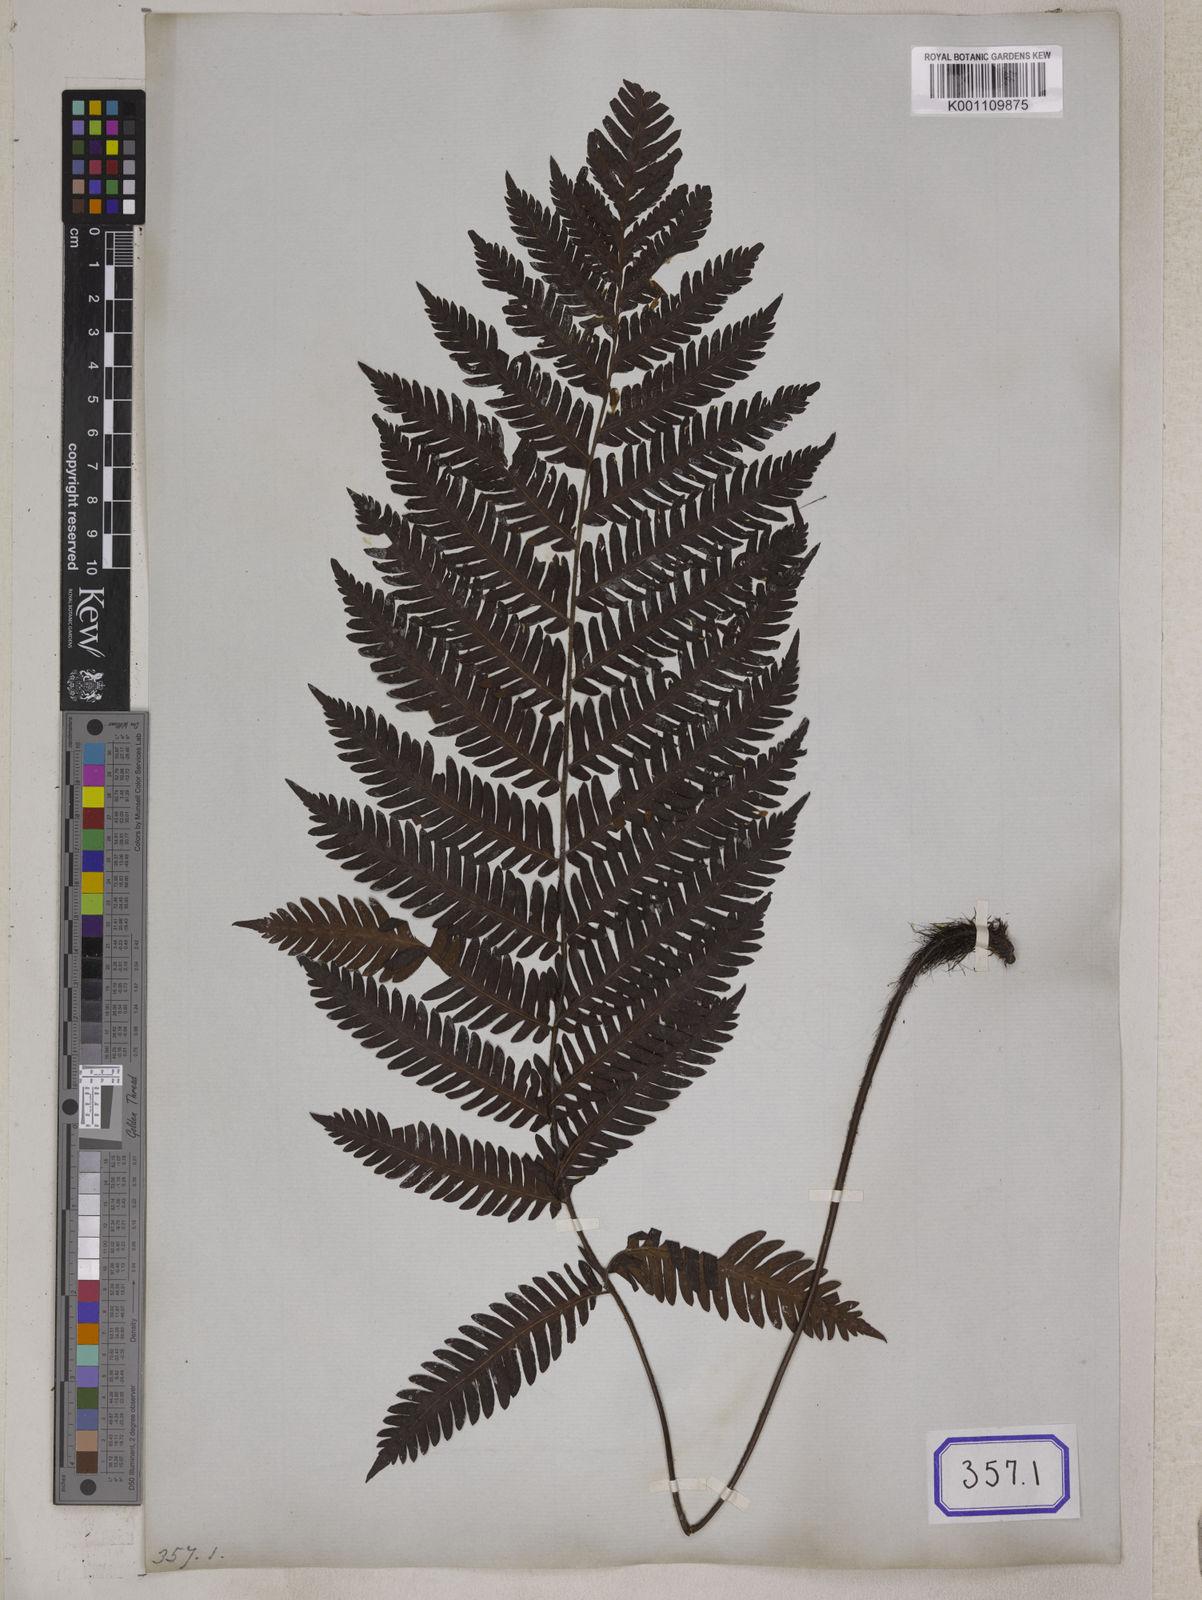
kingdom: Plantae
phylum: Tracheophyta
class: Polypodiopsida
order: Polypodiales
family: Tectariaceae
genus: Tectaria
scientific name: Tectaria Aspidium spec
